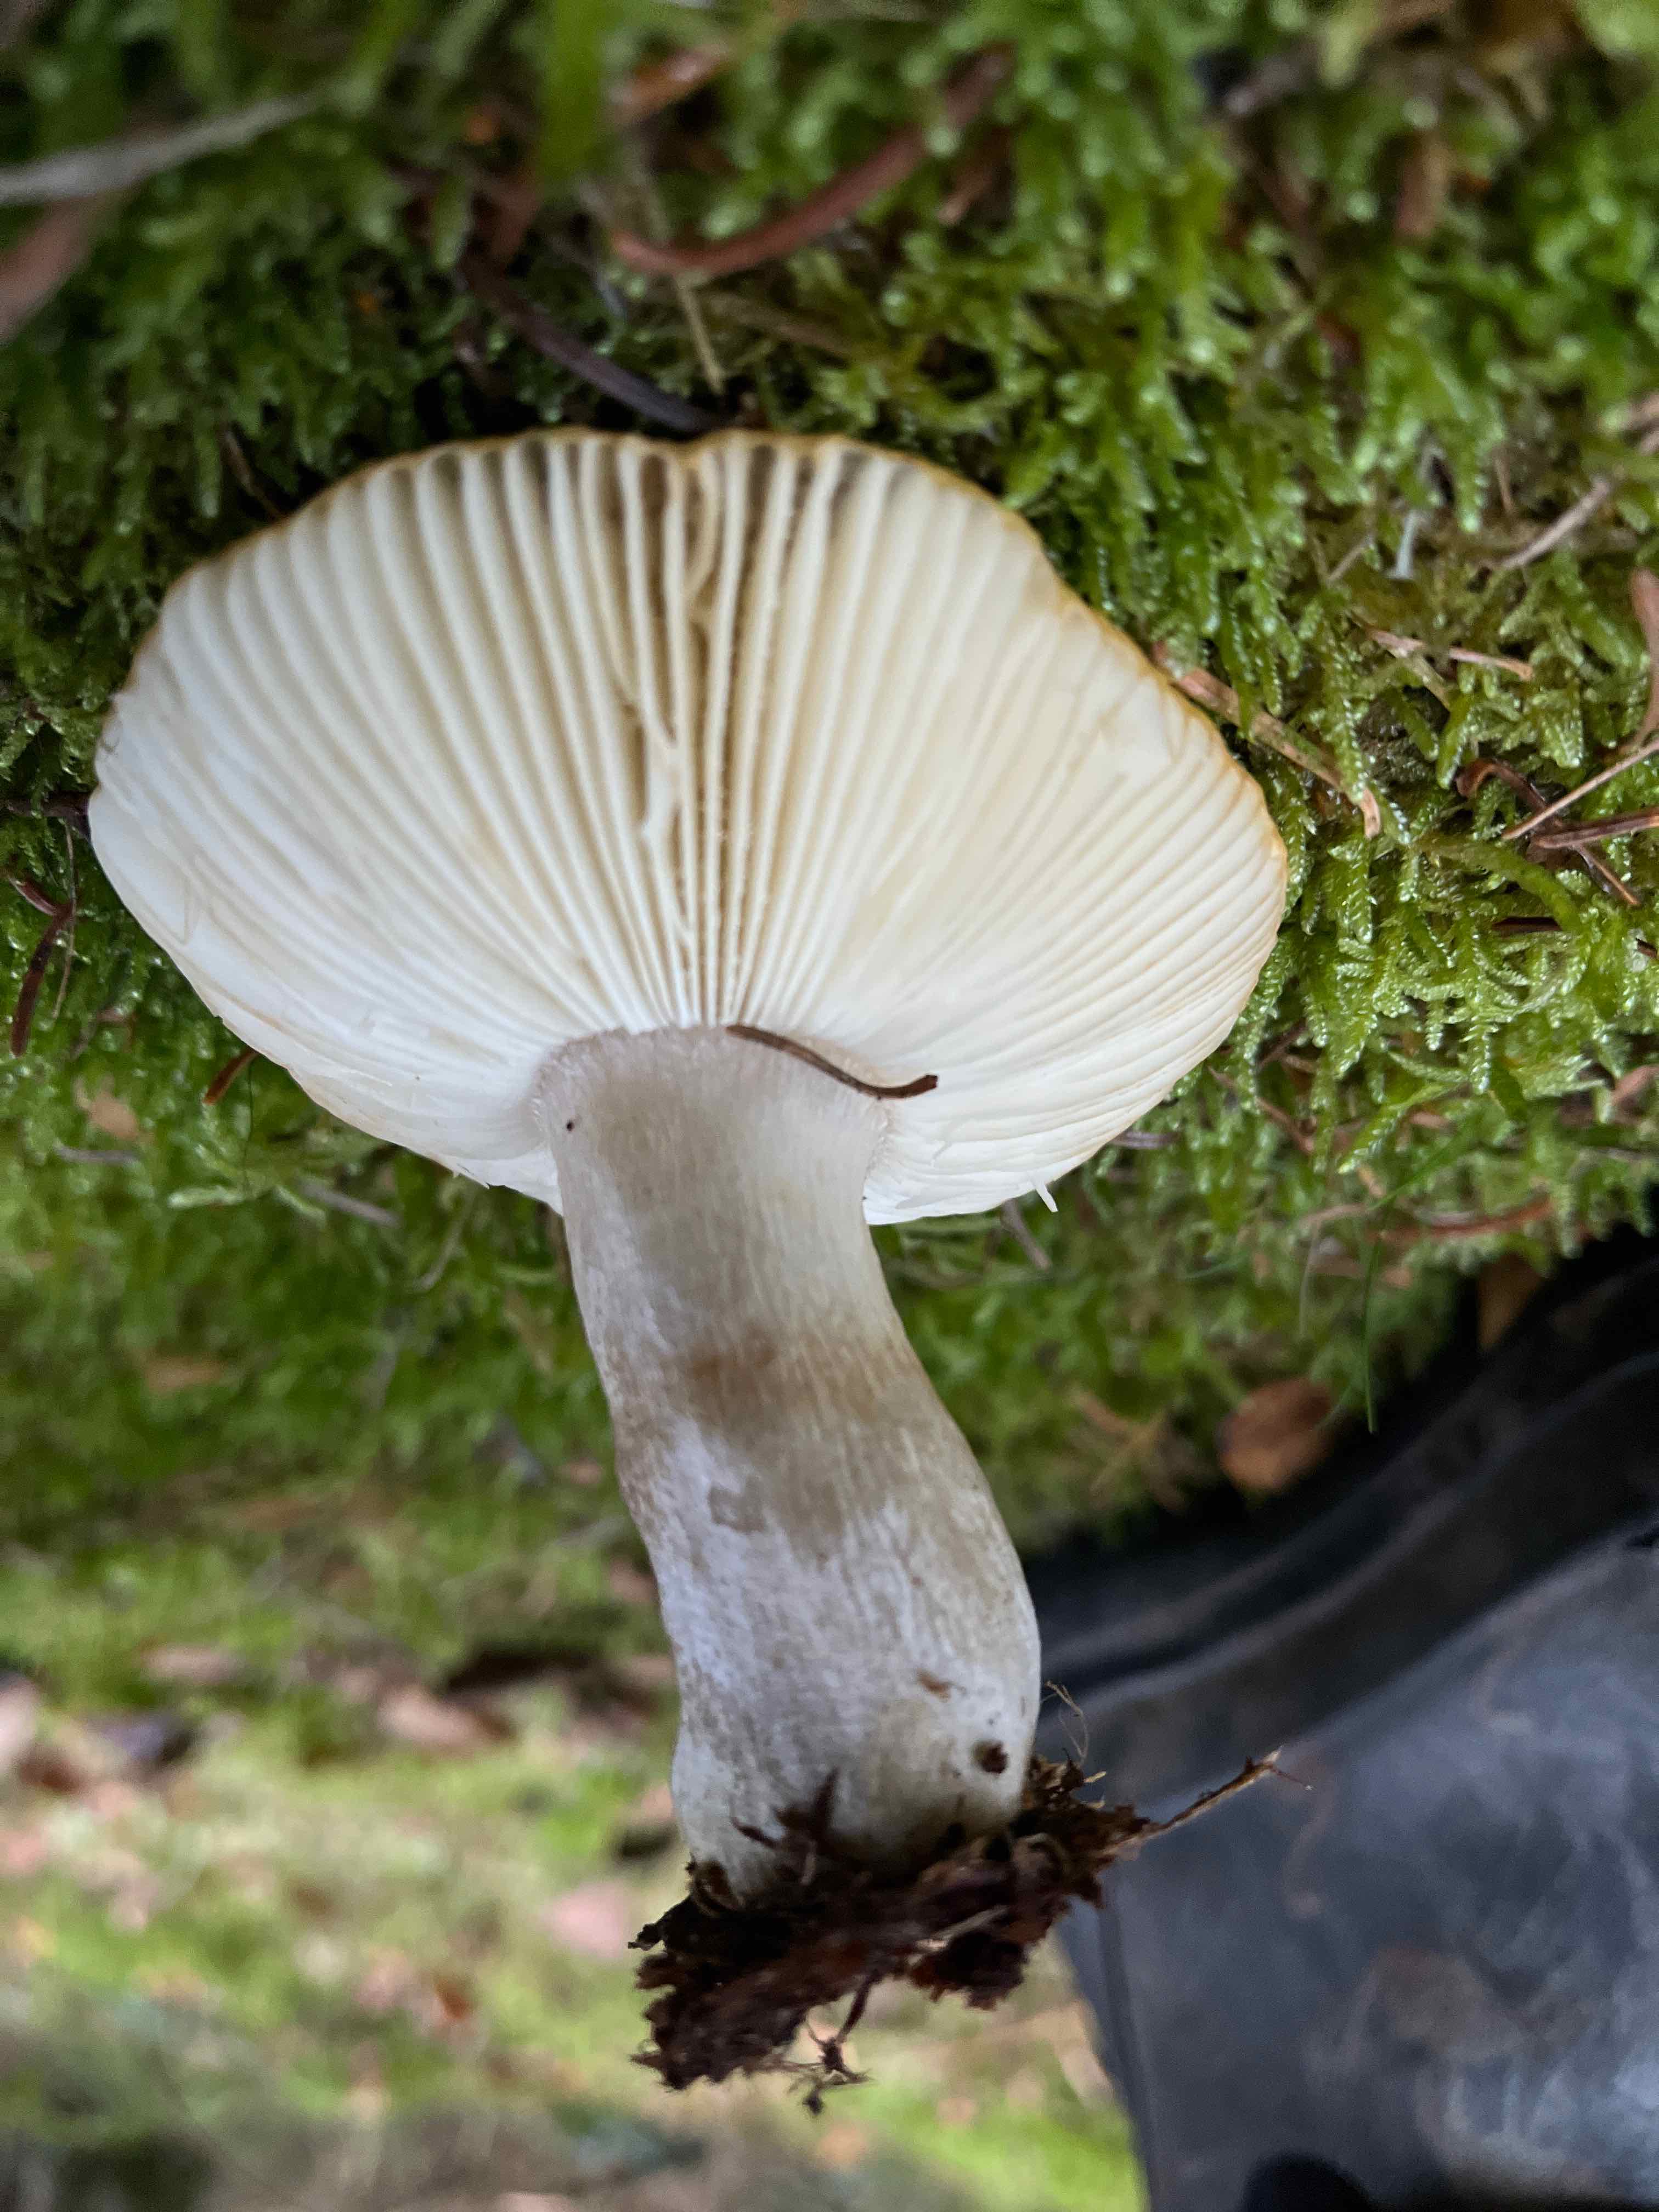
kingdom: Fungi
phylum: Basidiomycota
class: Agaricomycetes
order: Russulales
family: Russulaceae
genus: Russula
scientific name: Russula ochroleuca
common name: okkergul skørhat
